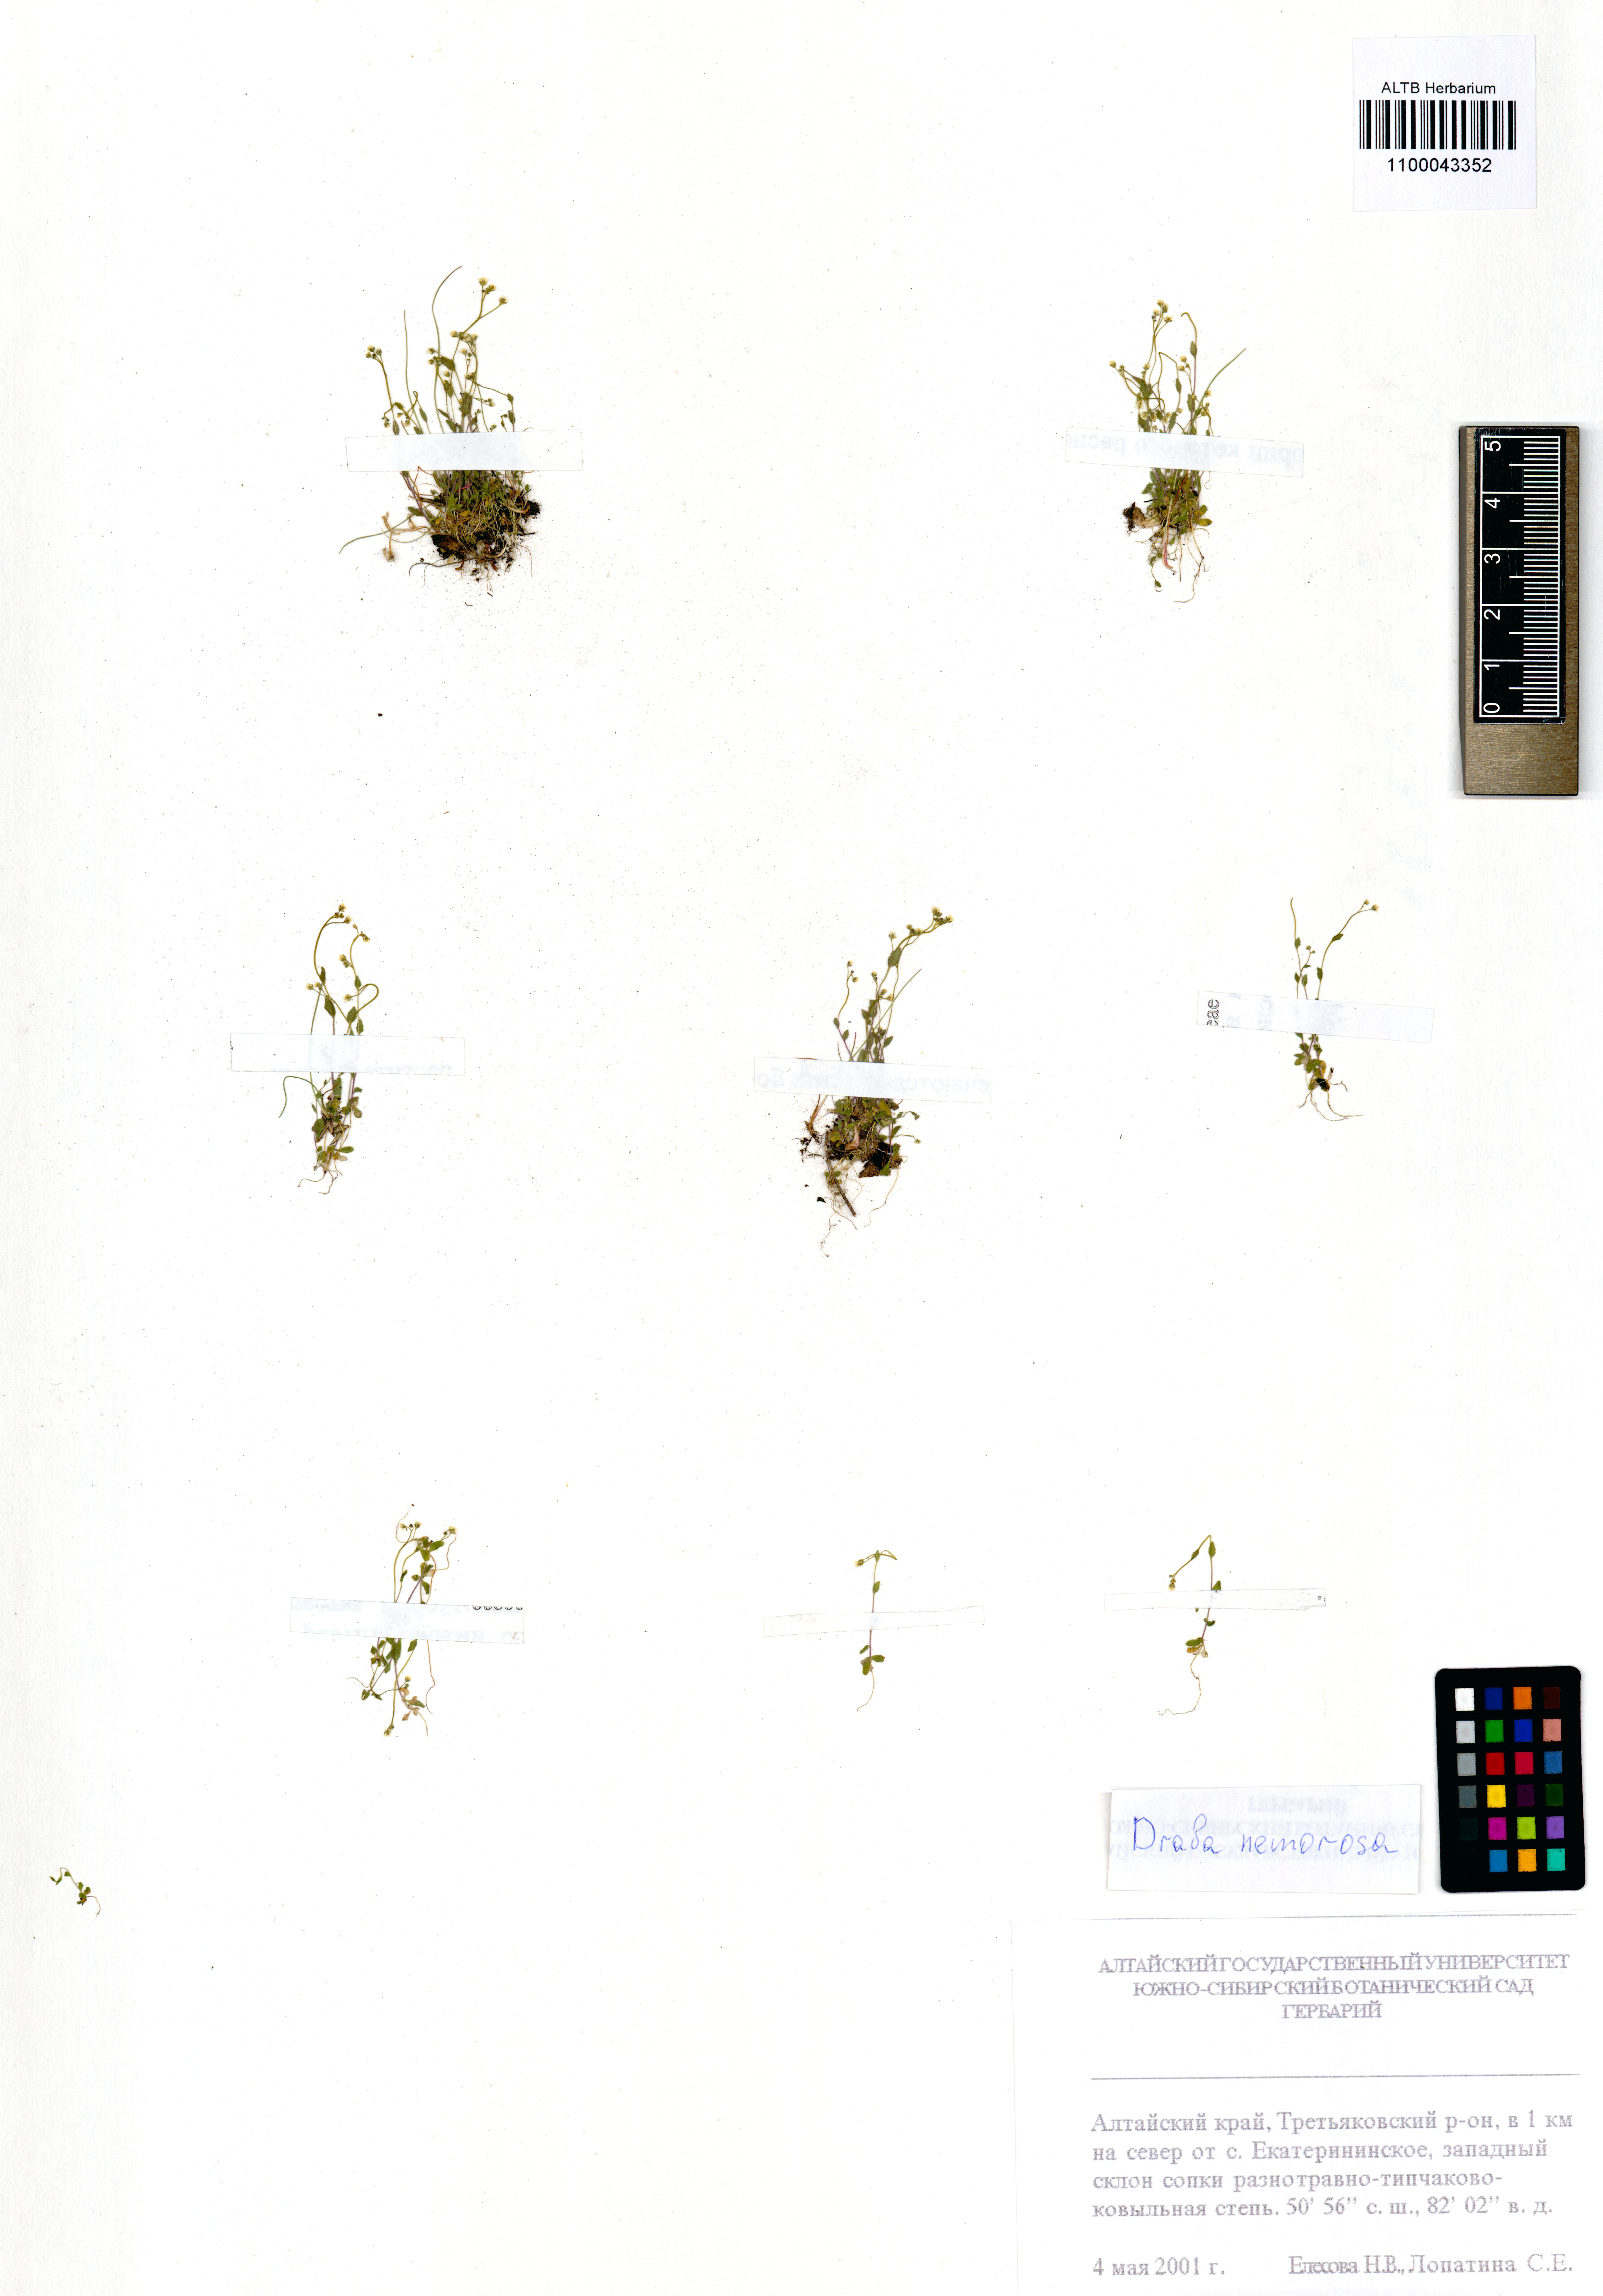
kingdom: Plantae
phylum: Tracheophyta
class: Magnoliopsida
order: Brassicales
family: Brassicaceae
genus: Draba
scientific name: Draba nemorosa
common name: Wood whitlow-grass
